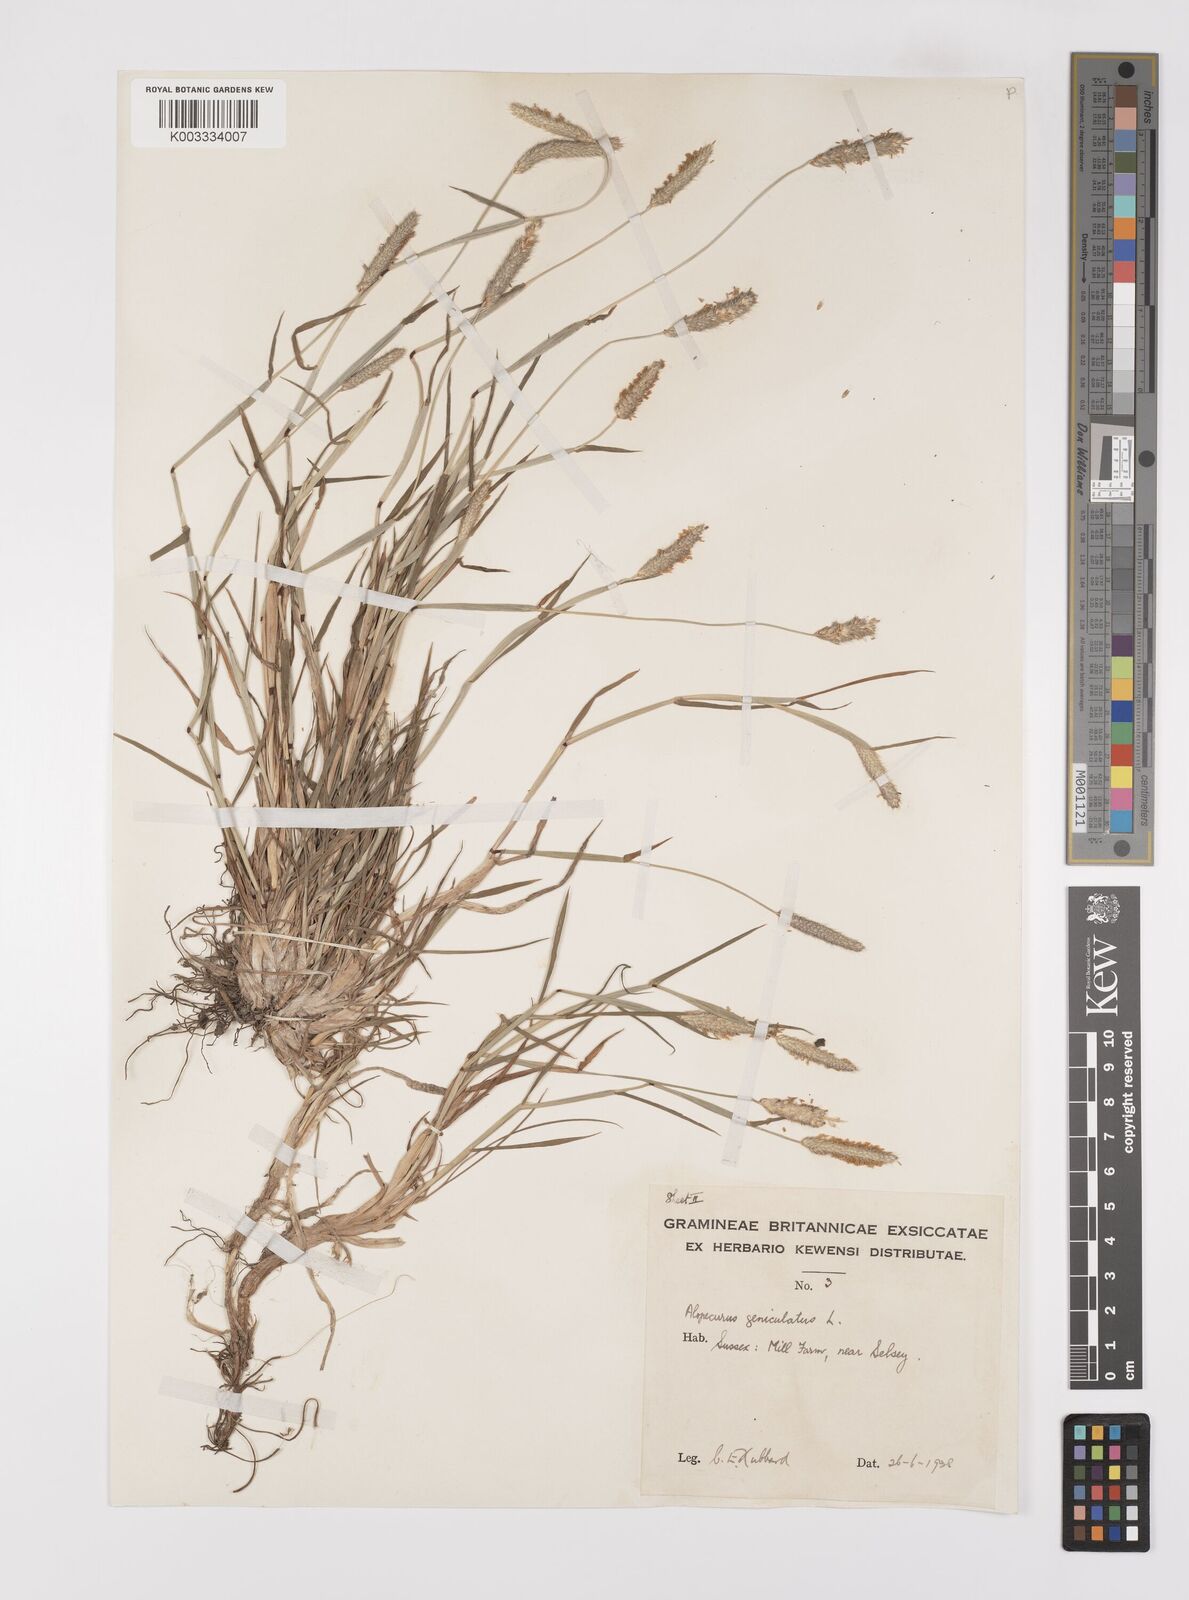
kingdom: Plantae
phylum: Tracheophyta
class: Liliopsida
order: Poales
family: Poaceae
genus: Alopecurus
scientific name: Alopecurus geniculatus
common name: Water foxtail
